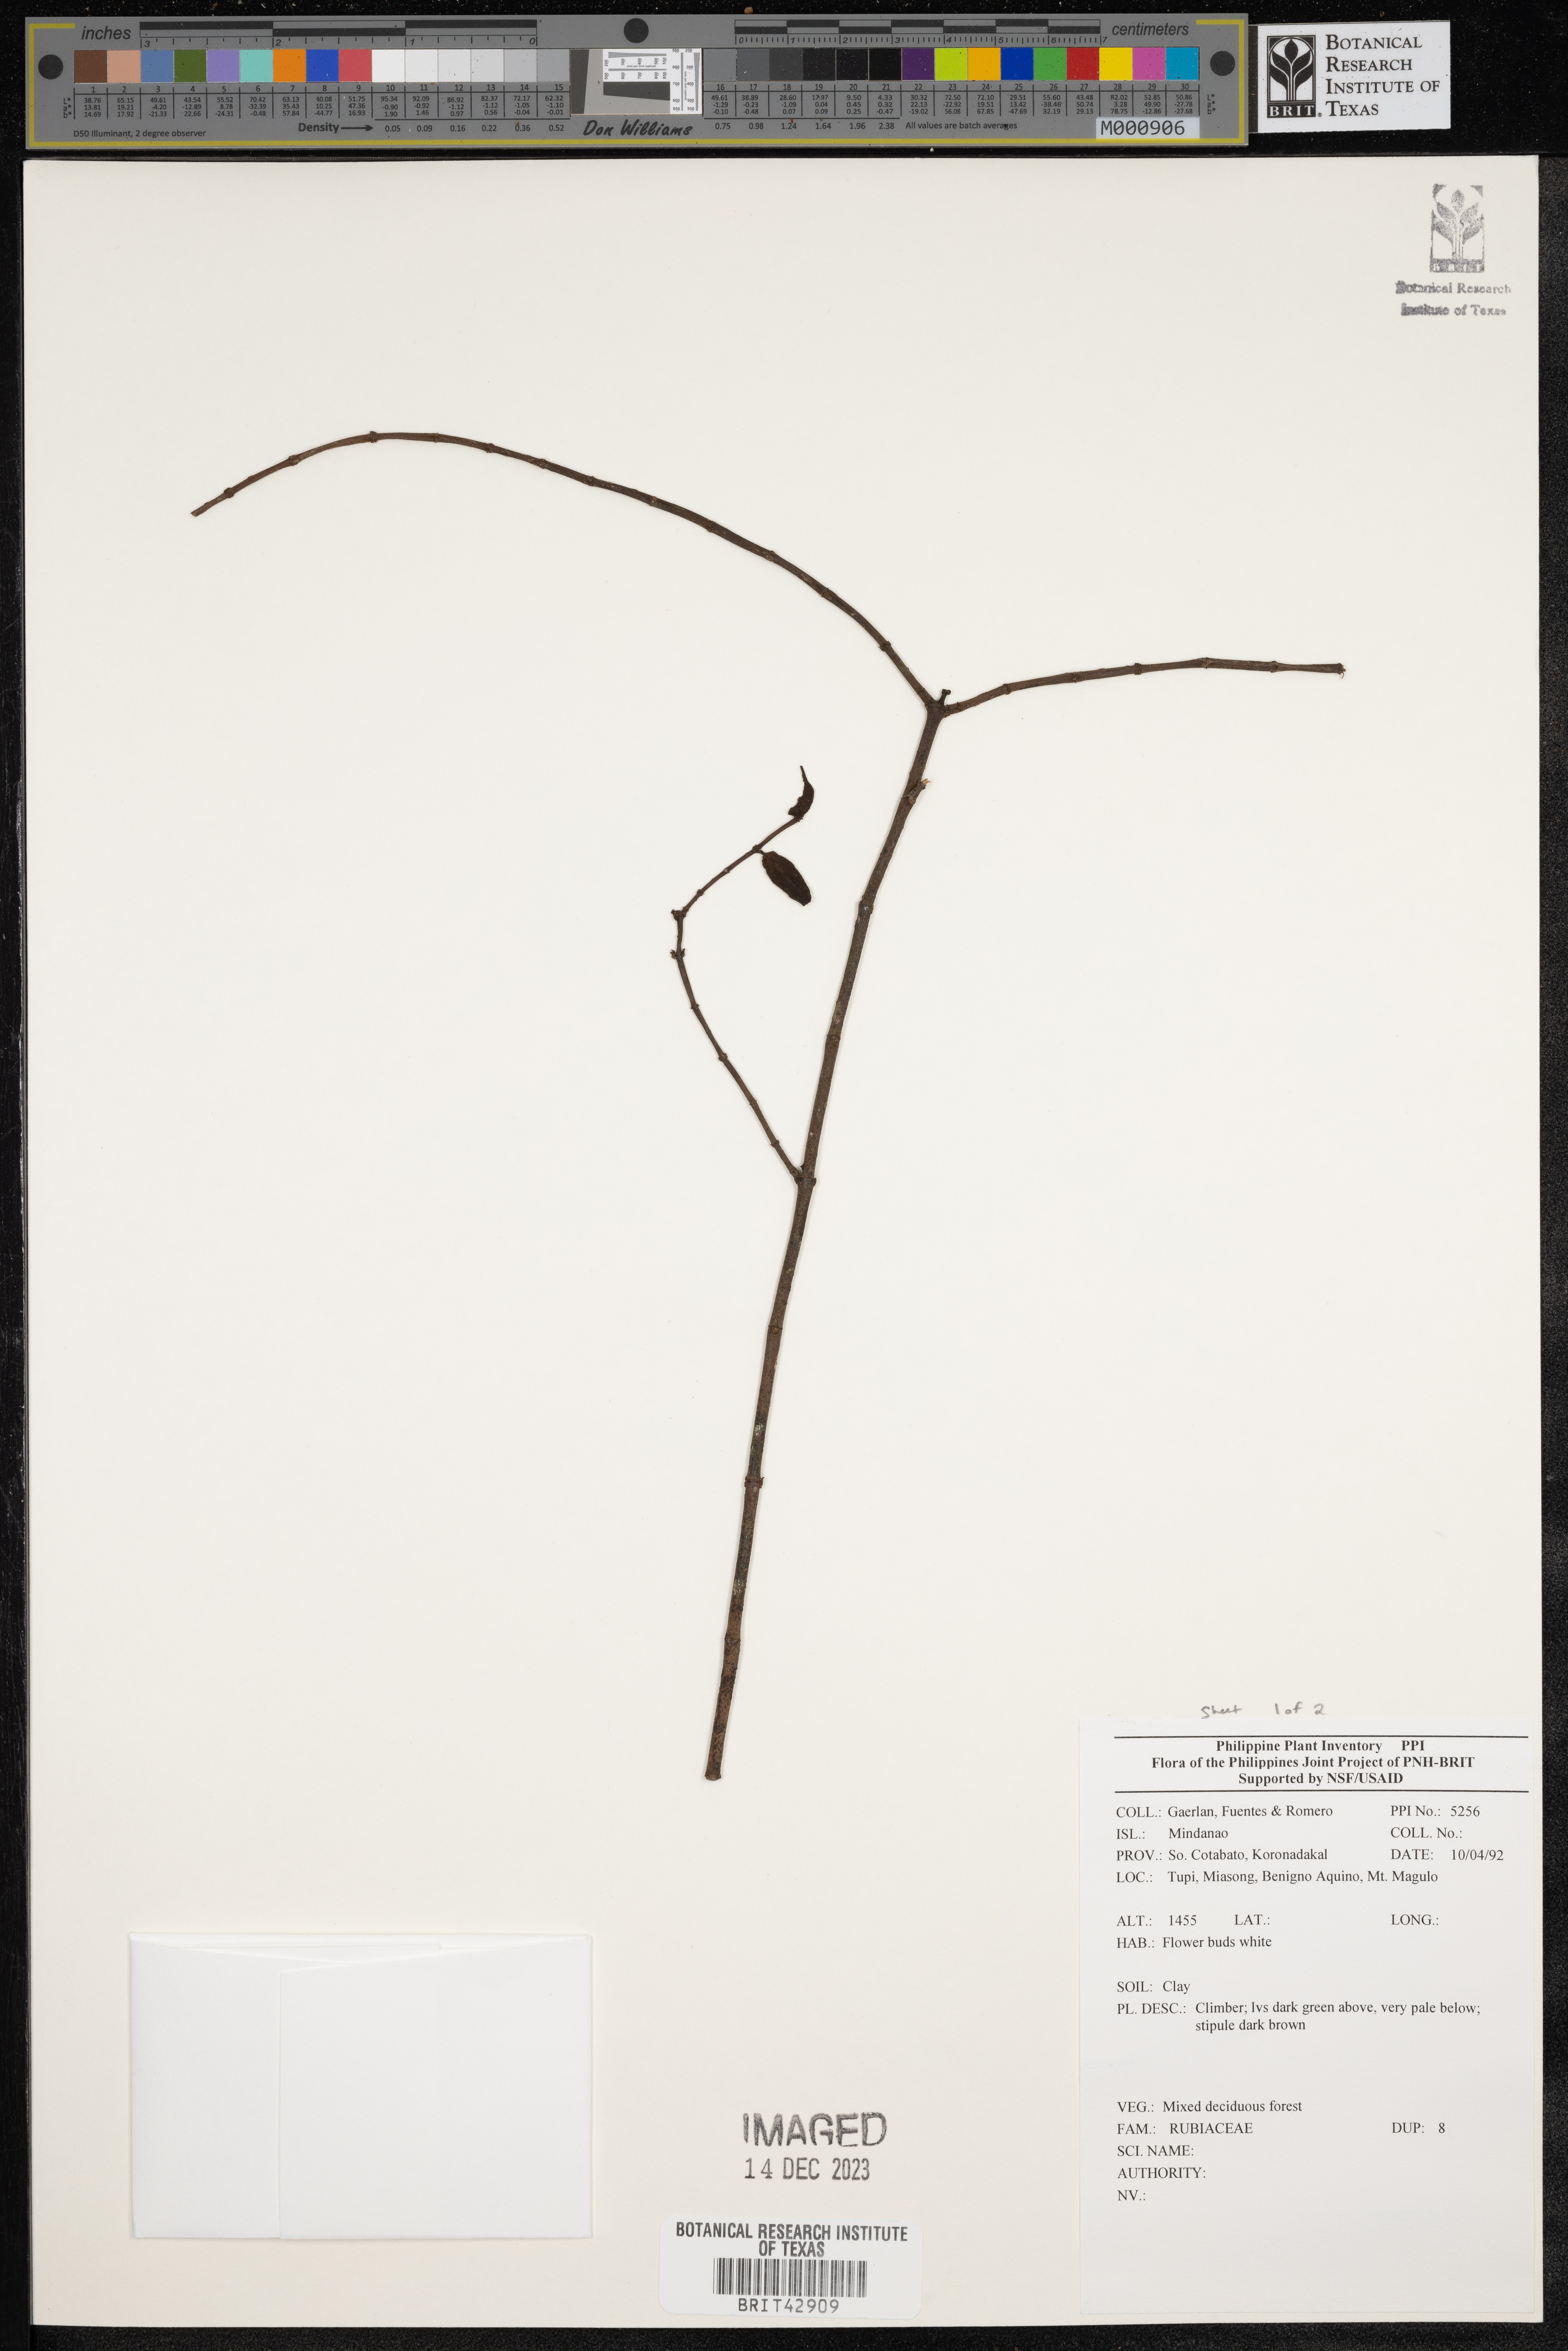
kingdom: Plantae
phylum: Tracheophyta
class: Magnoliopsida
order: Gentianales
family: Rubiaceae
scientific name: Rubiaceae
